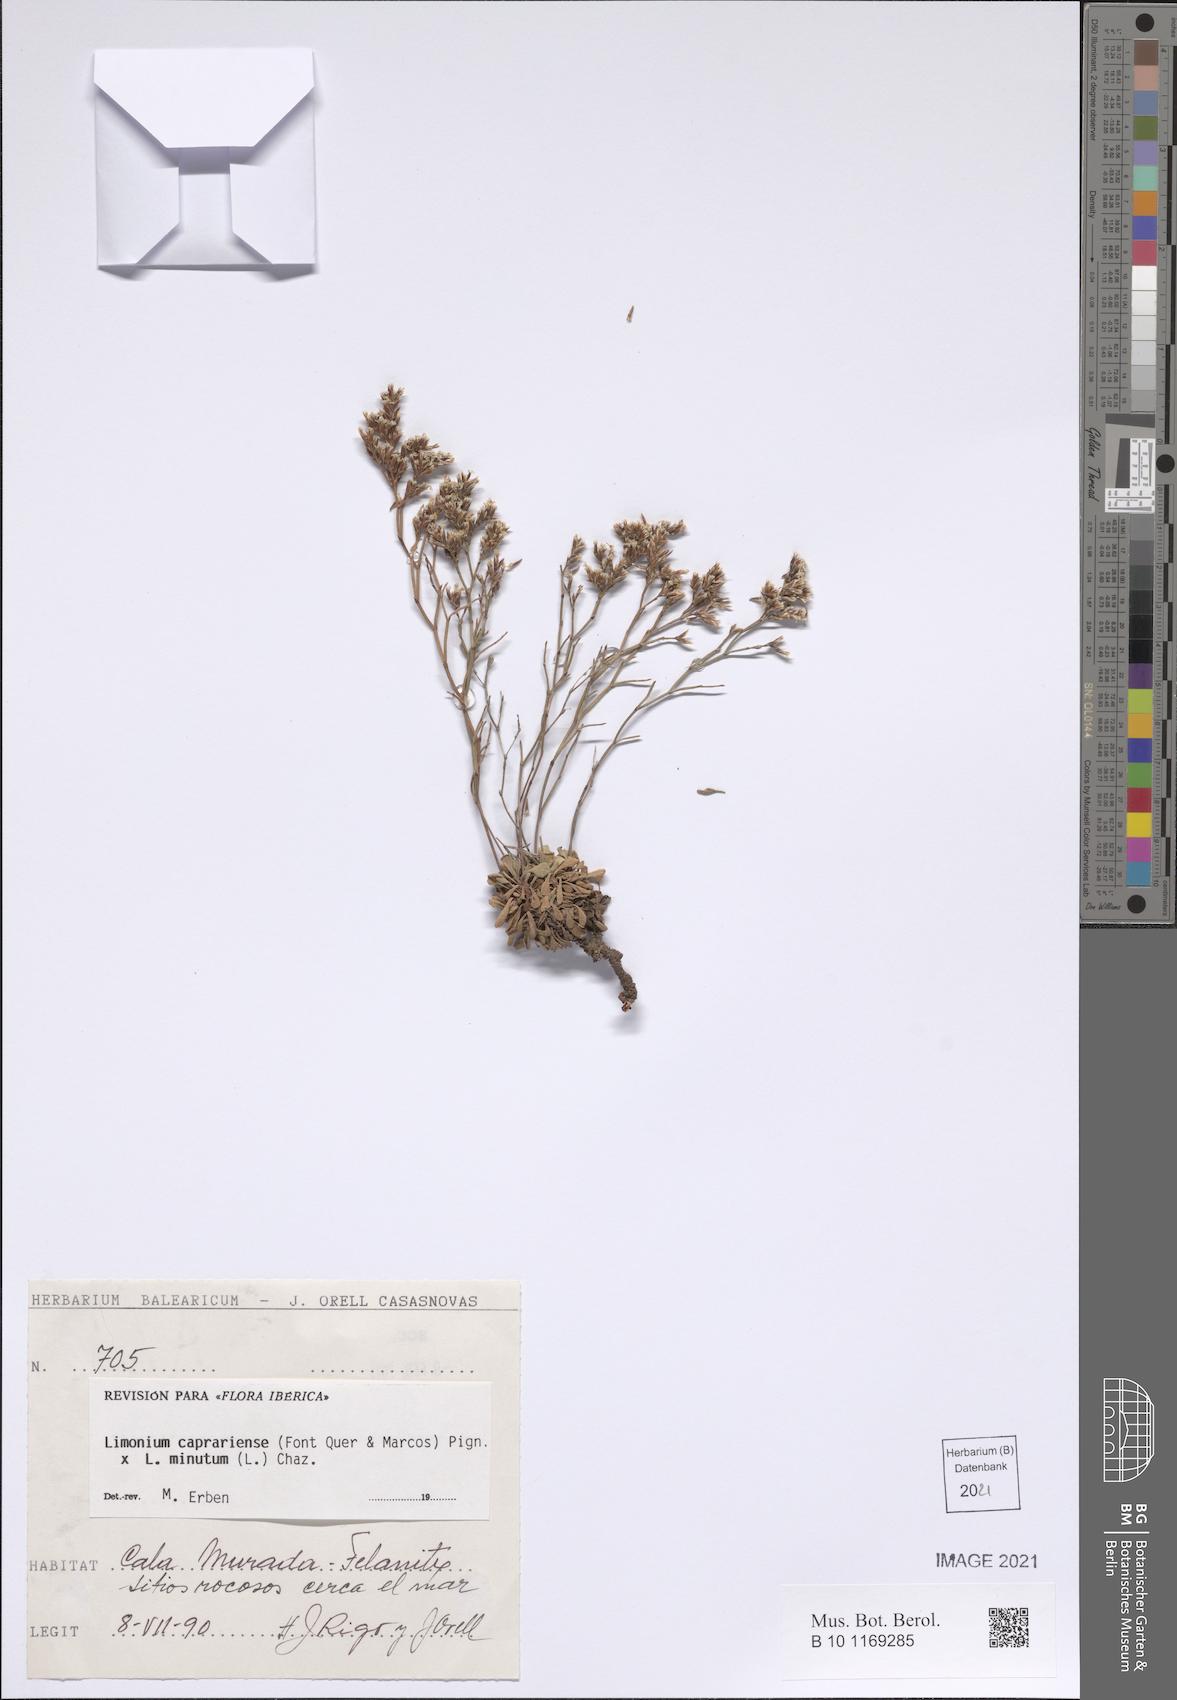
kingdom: Plantae
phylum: Tracheophyta
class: Magnoliopsida
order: Caryophyllales
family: Plumbaginaceae
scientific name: Plumbaginaceae
